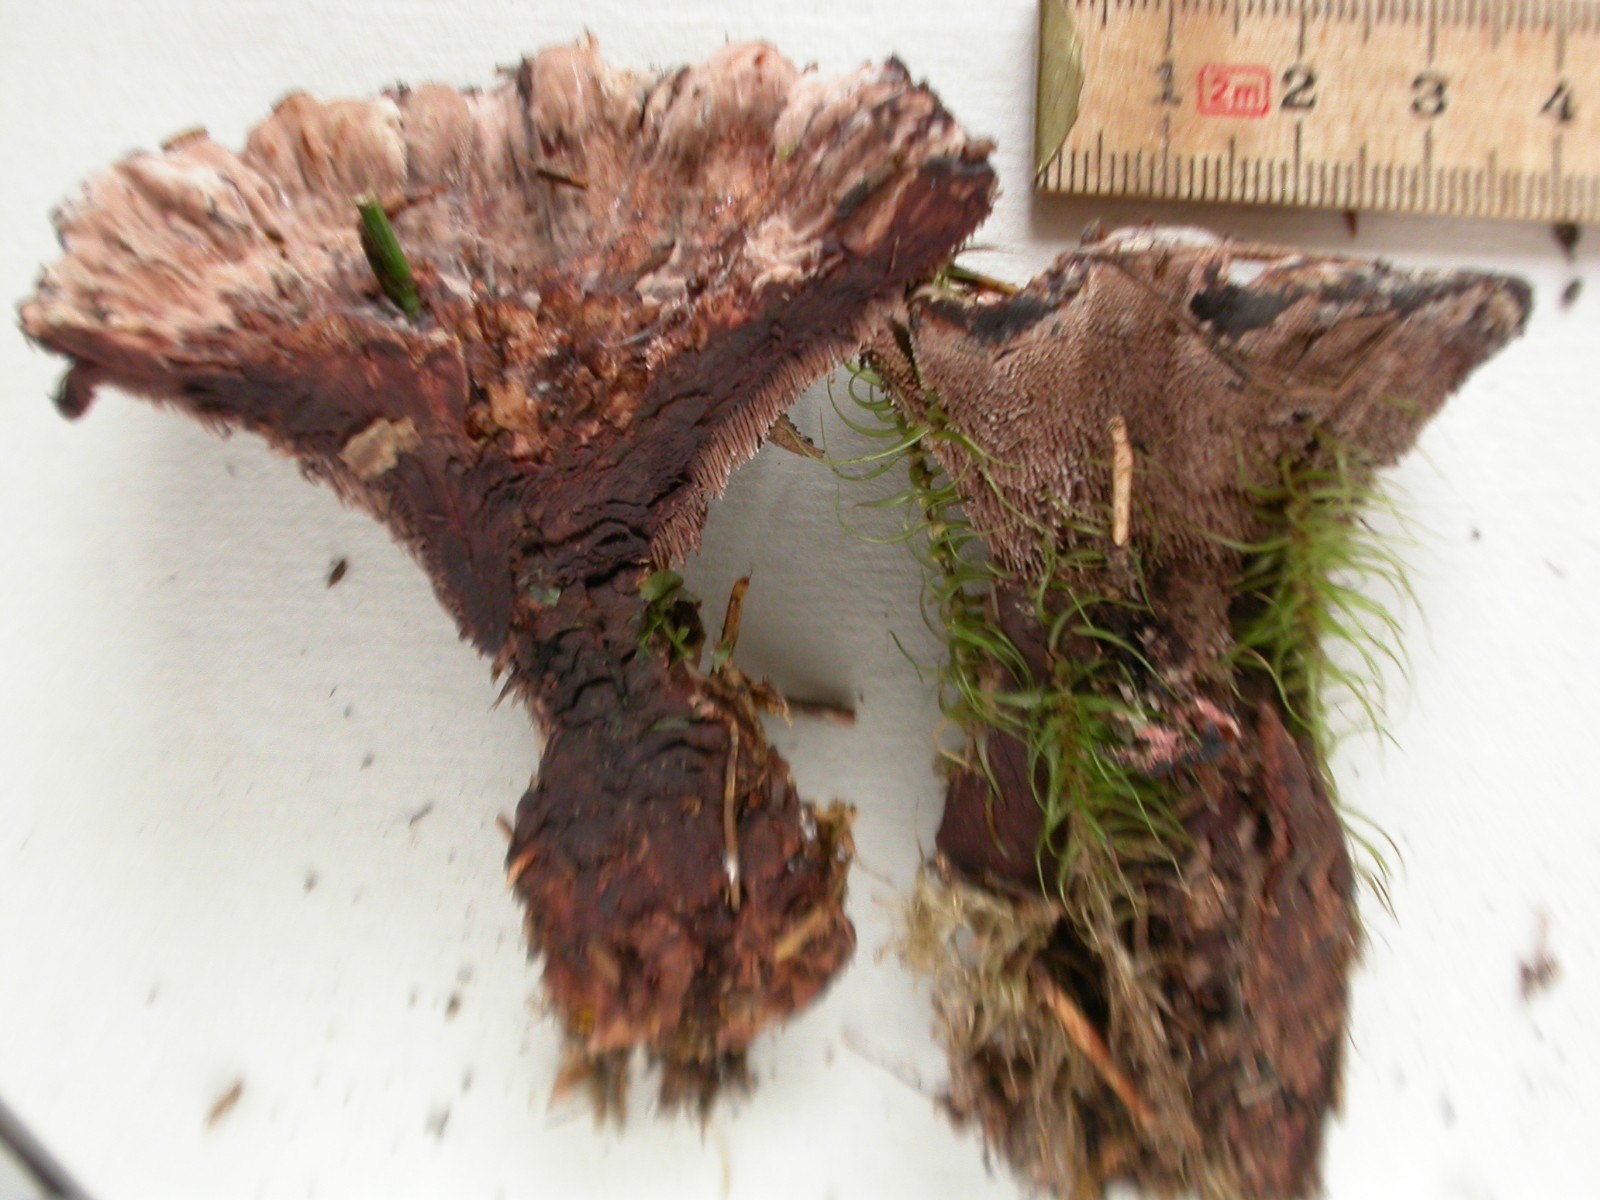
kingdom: Fungi
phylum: Basidiomycota
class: Agaricomycetes
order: Thelephorales
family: Bankeraceae
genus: Hydnellum
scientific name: Hydnellum scrobiculatum
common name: grubet korkpigsvamp
